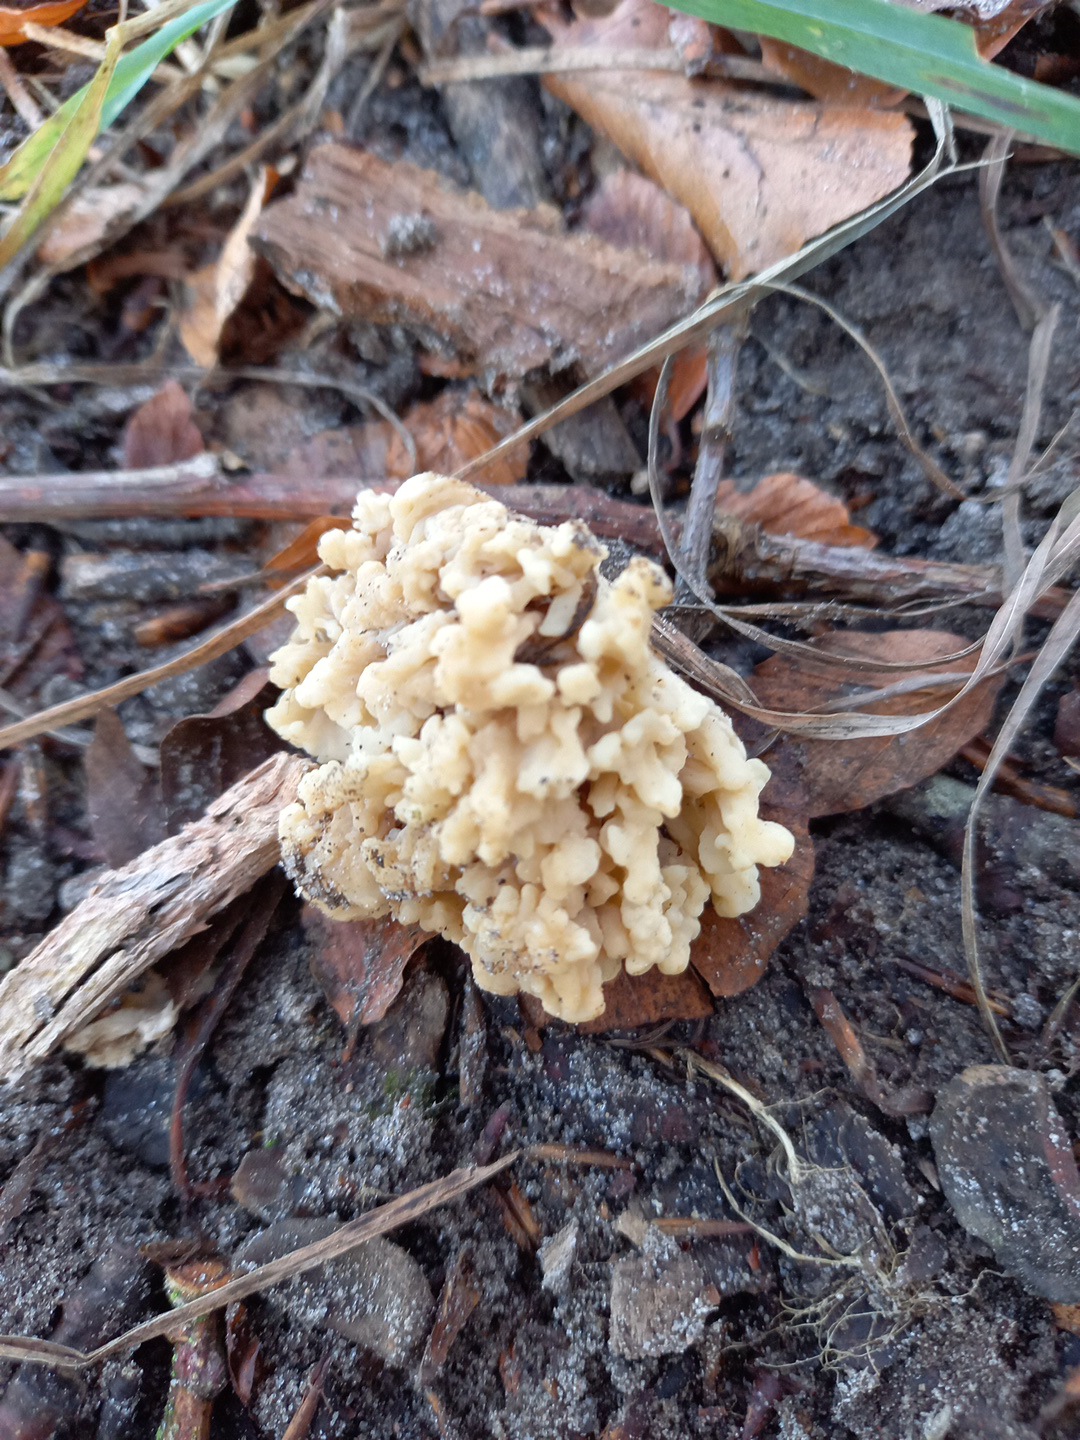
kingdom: Fungi
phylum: Basidiomycota
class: Agaricomycetes
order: Cantharellales
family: Hydnaceae
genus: Clavulina
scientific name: Clavulina
